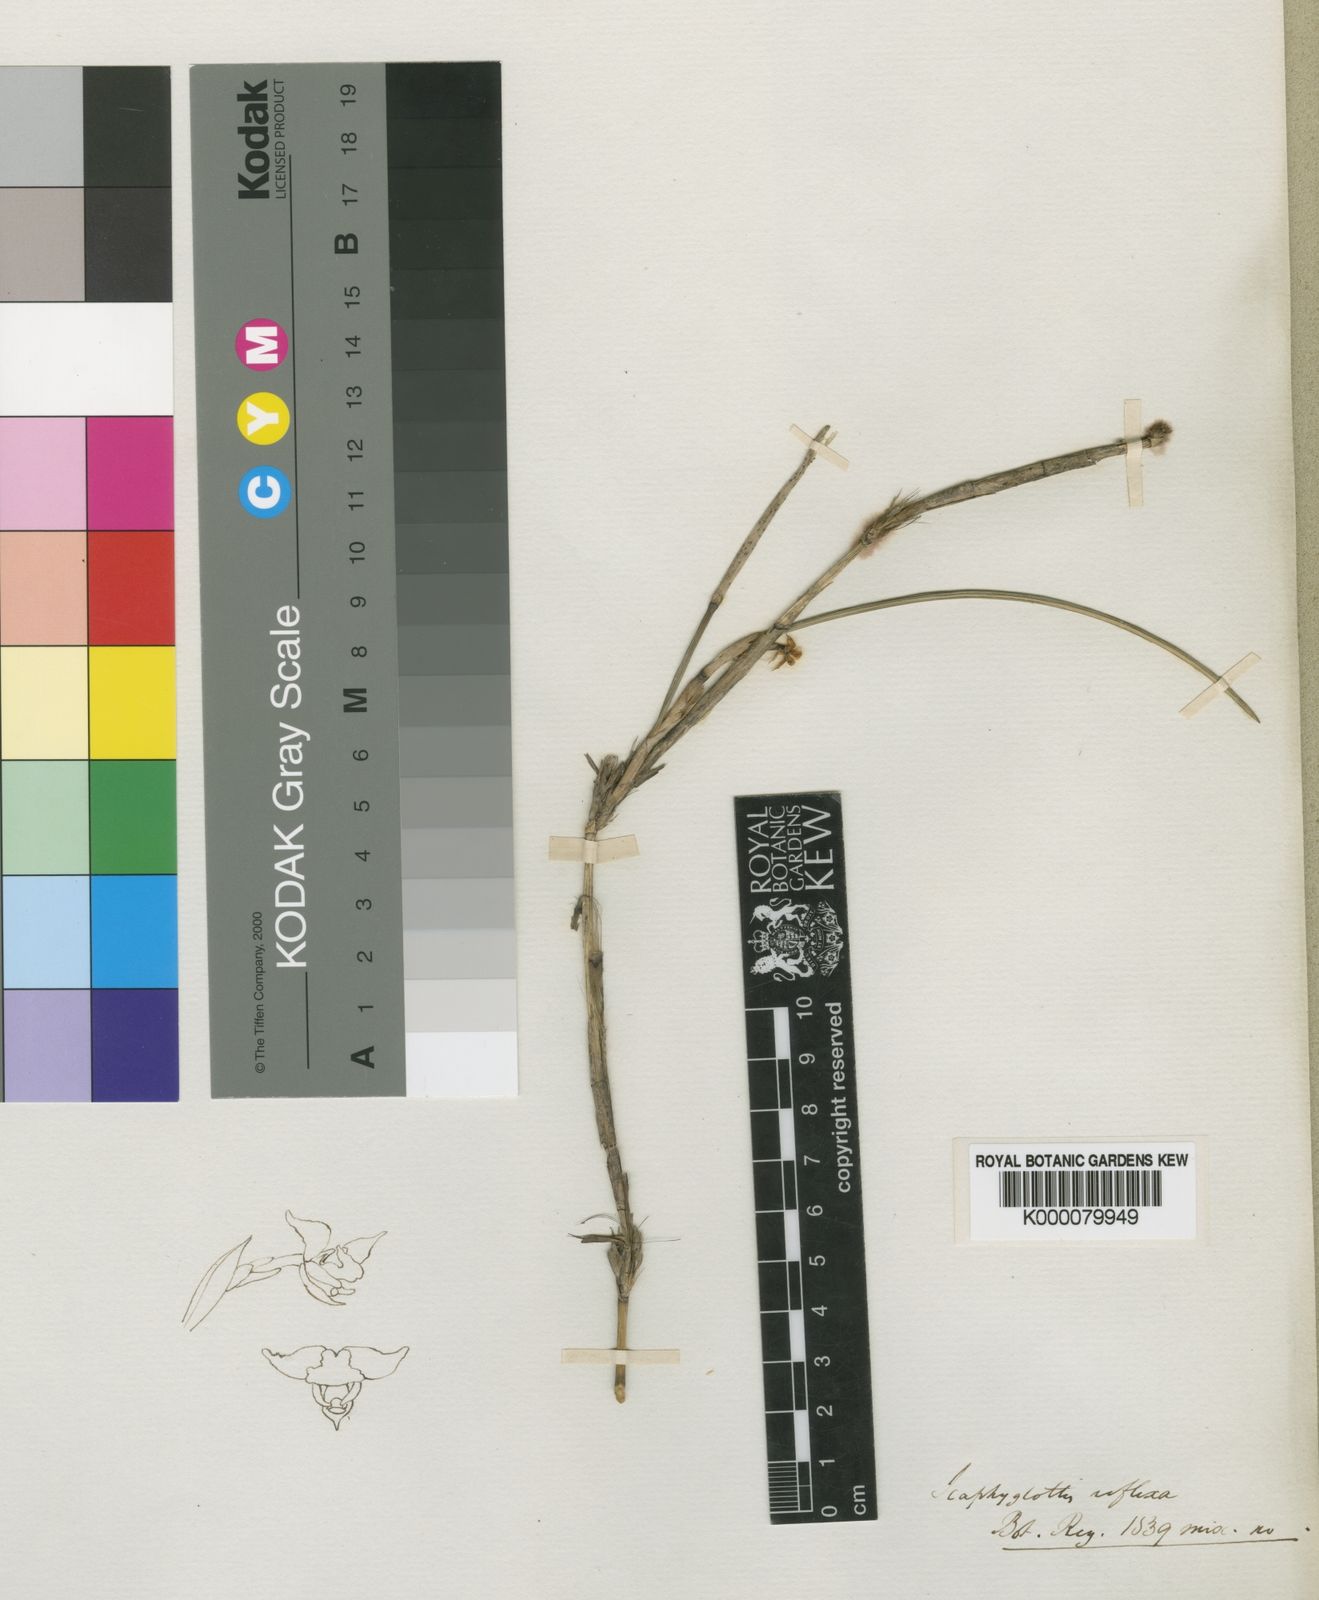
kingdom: Plantae
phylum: Tracheophyta
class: Liliopsida
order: Asparagales
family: Orchidaceae
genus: Scaphyglottis
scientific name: Scaphyglottis reflexa
